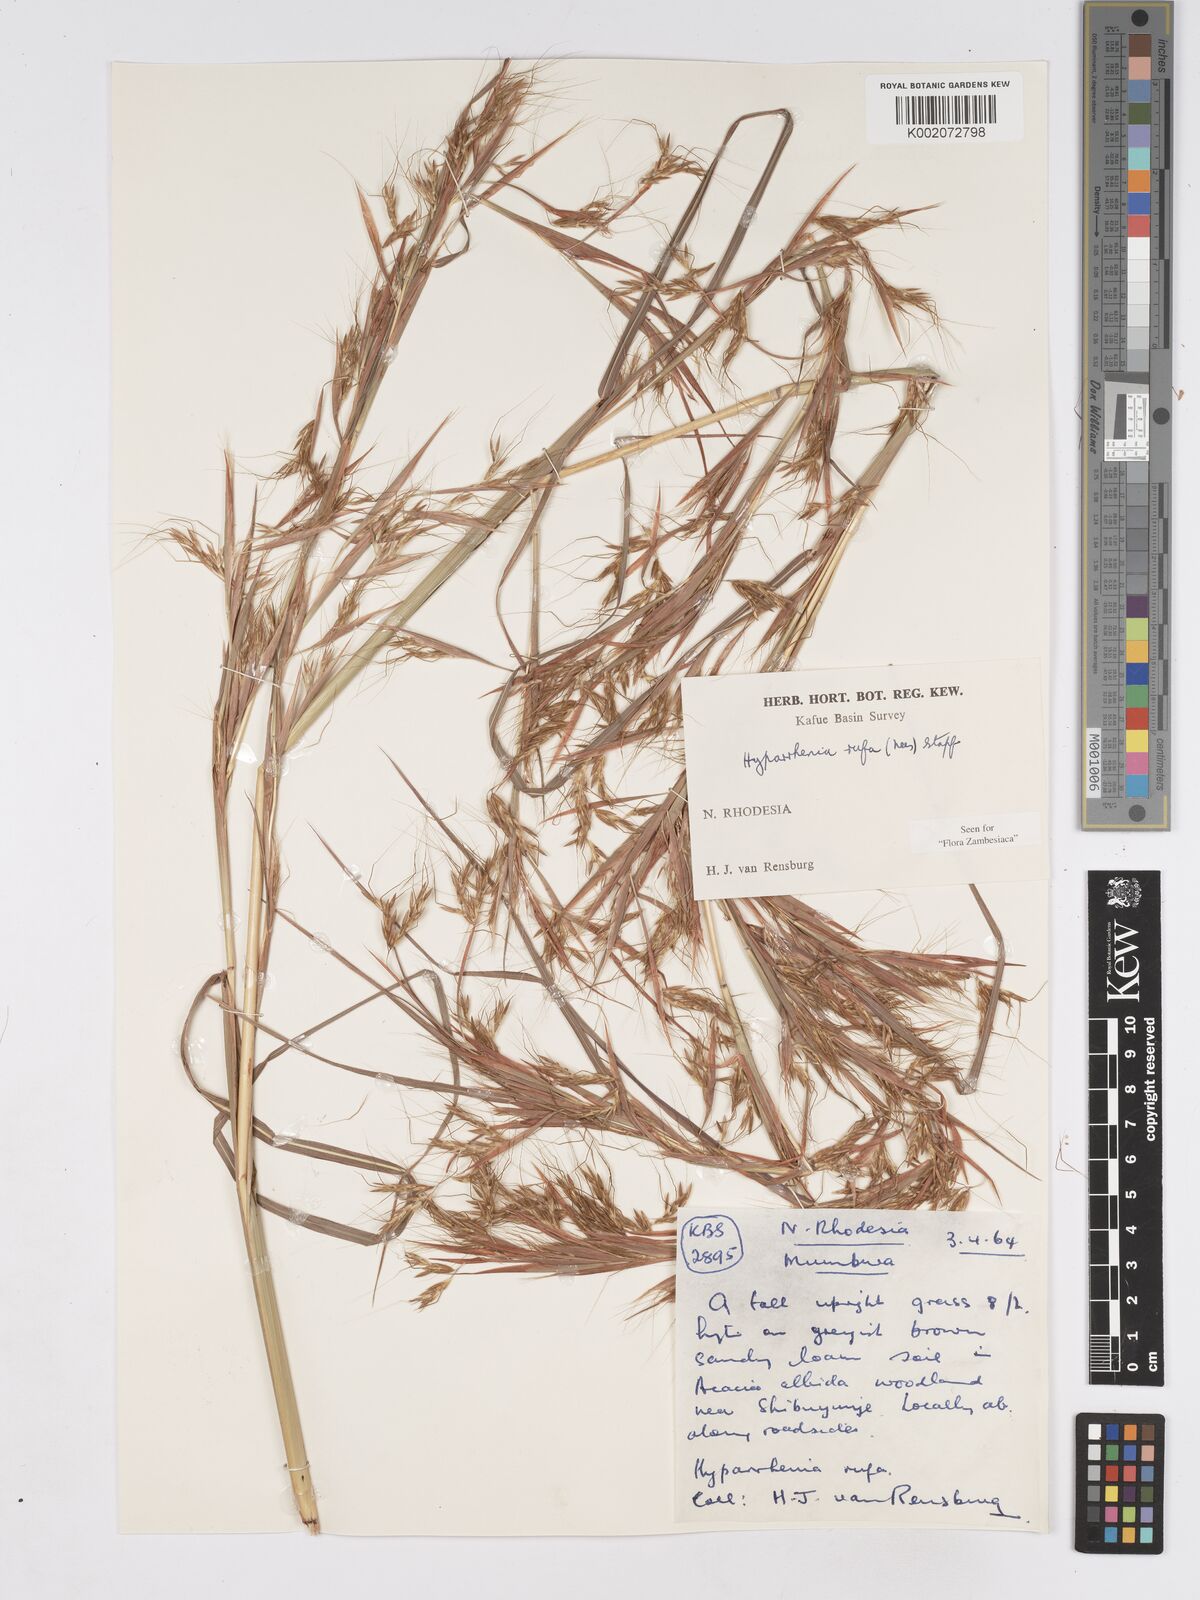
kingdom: Plantae
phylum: Tracheophyta
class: Liliopsida
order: Poales
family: Poaceae
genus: Hyparrhenia
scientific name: Hyparrhenia rufa
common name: Jaraguagrass
